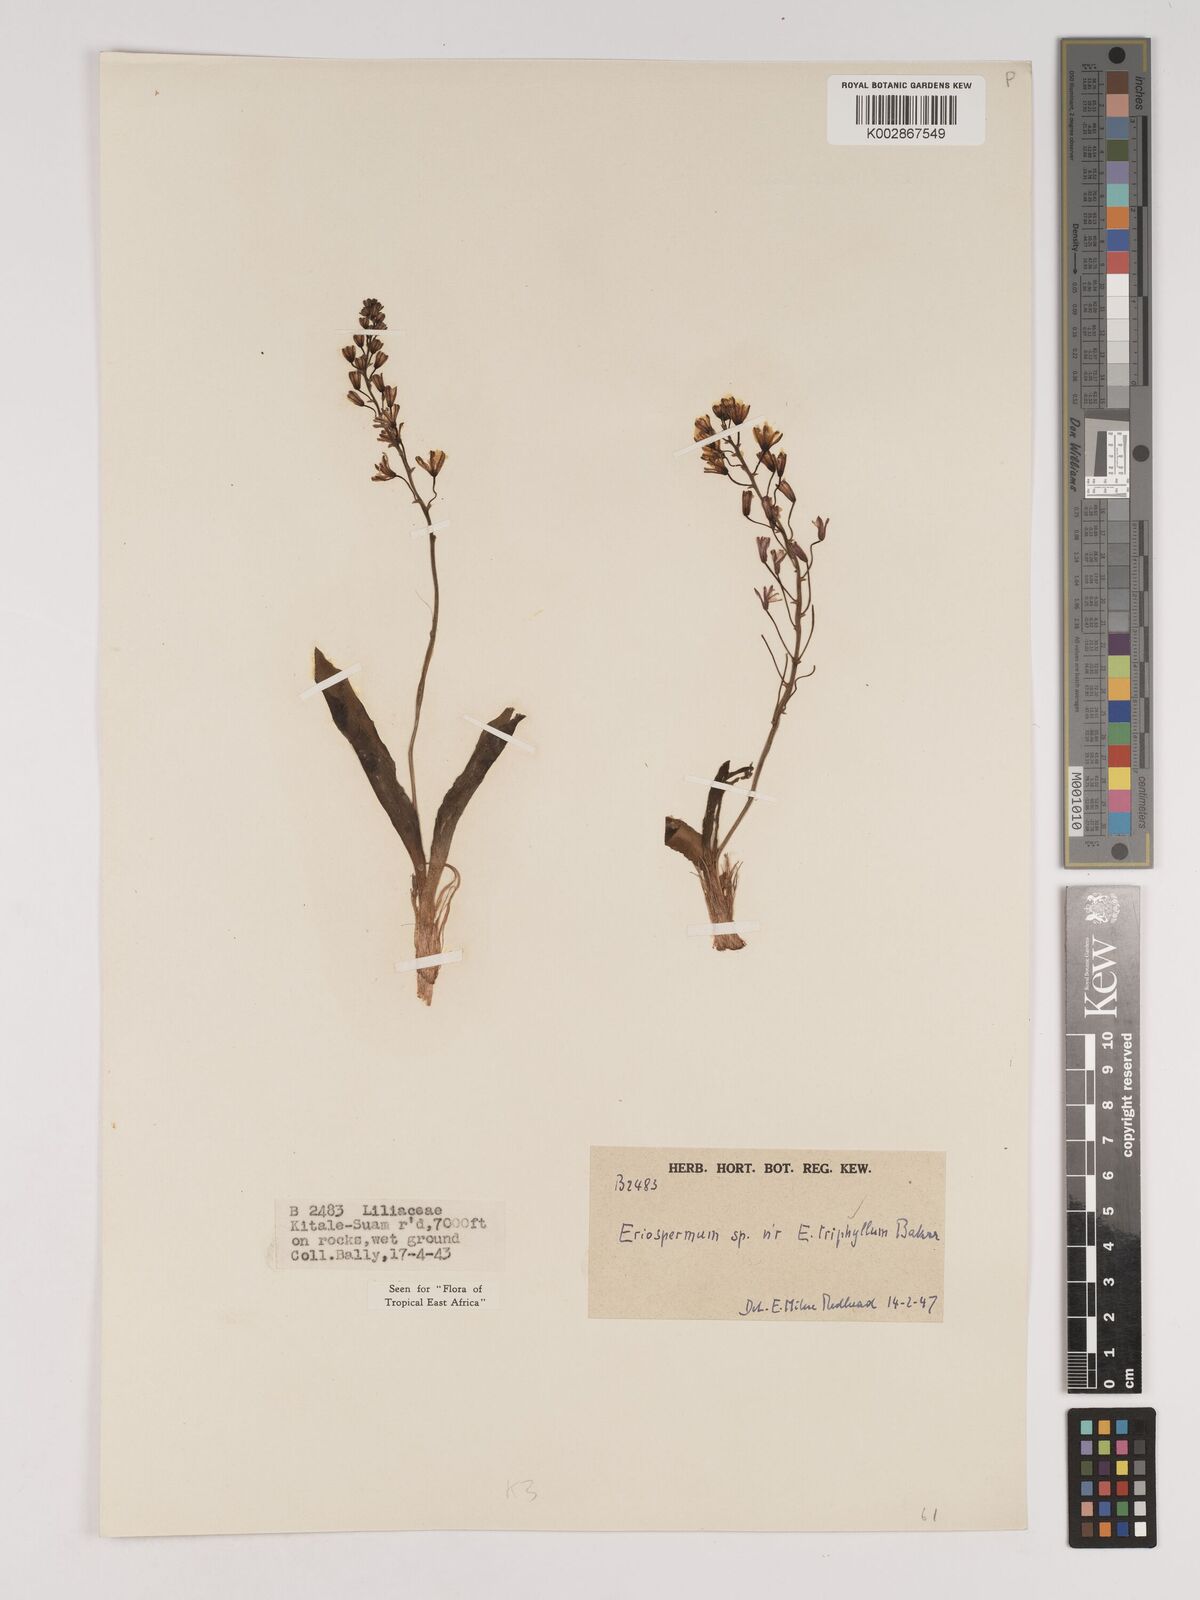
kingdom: Plantae
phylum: Tracheophyta
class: Liliopsida
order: Asparagales
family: Asparagaceae
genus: Eriospermum
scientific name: Eriospermum triphyllum
